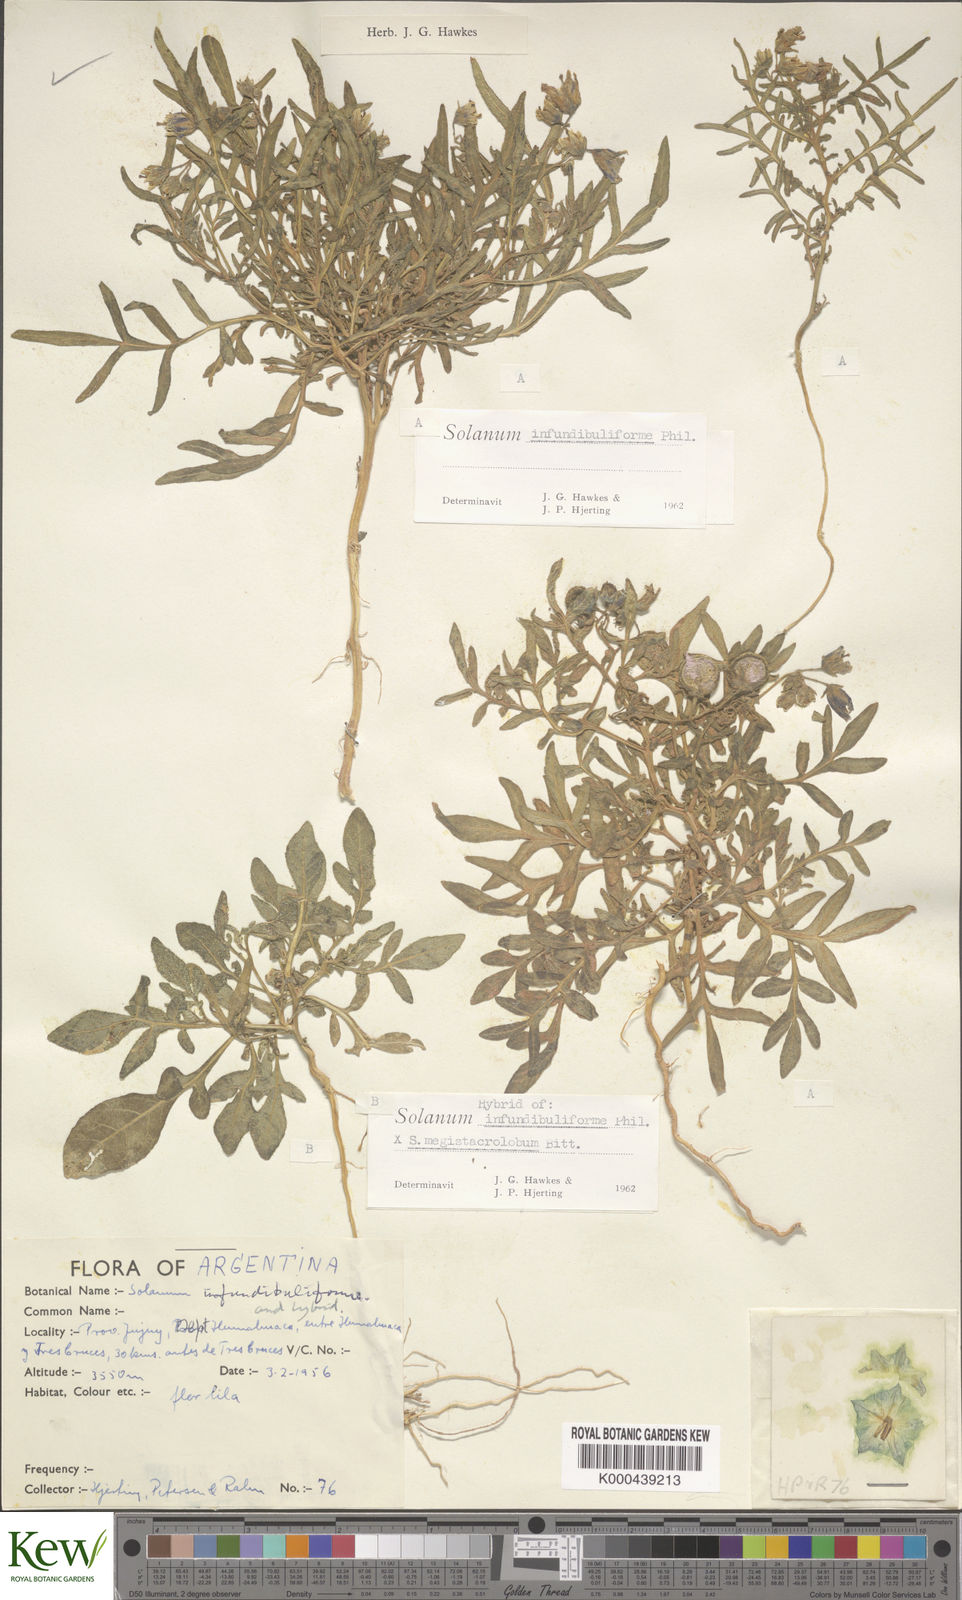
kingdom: Plantae
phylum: Tracheophyta
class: Magnoliopsida
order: Solanales
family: Solanaceae
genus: Solanum
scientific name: Solanum infundibuliforme
